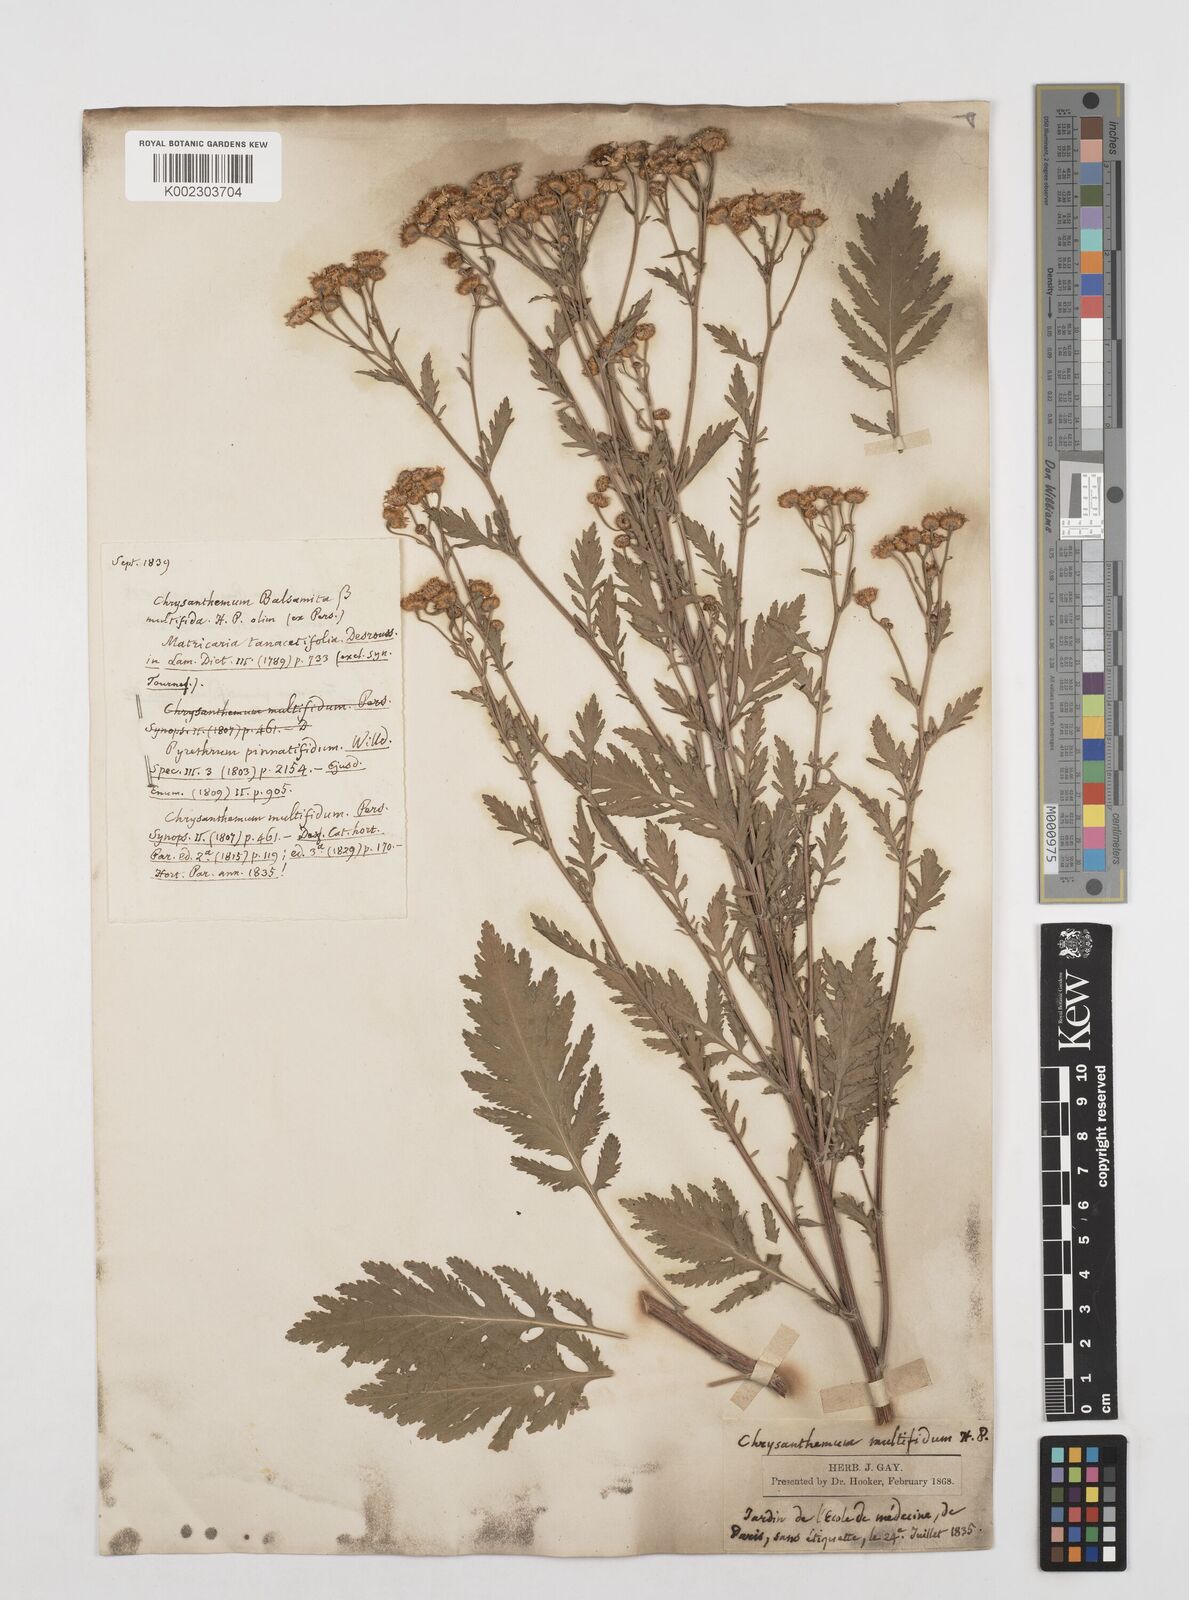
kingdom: Plantae
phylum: Tracheophyta
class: Magnoliopsida
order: Asterales
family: Asteraceae
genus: Oncosiphon
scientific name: Oncosiphon suffruticosus
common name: Shrubby mayweed
